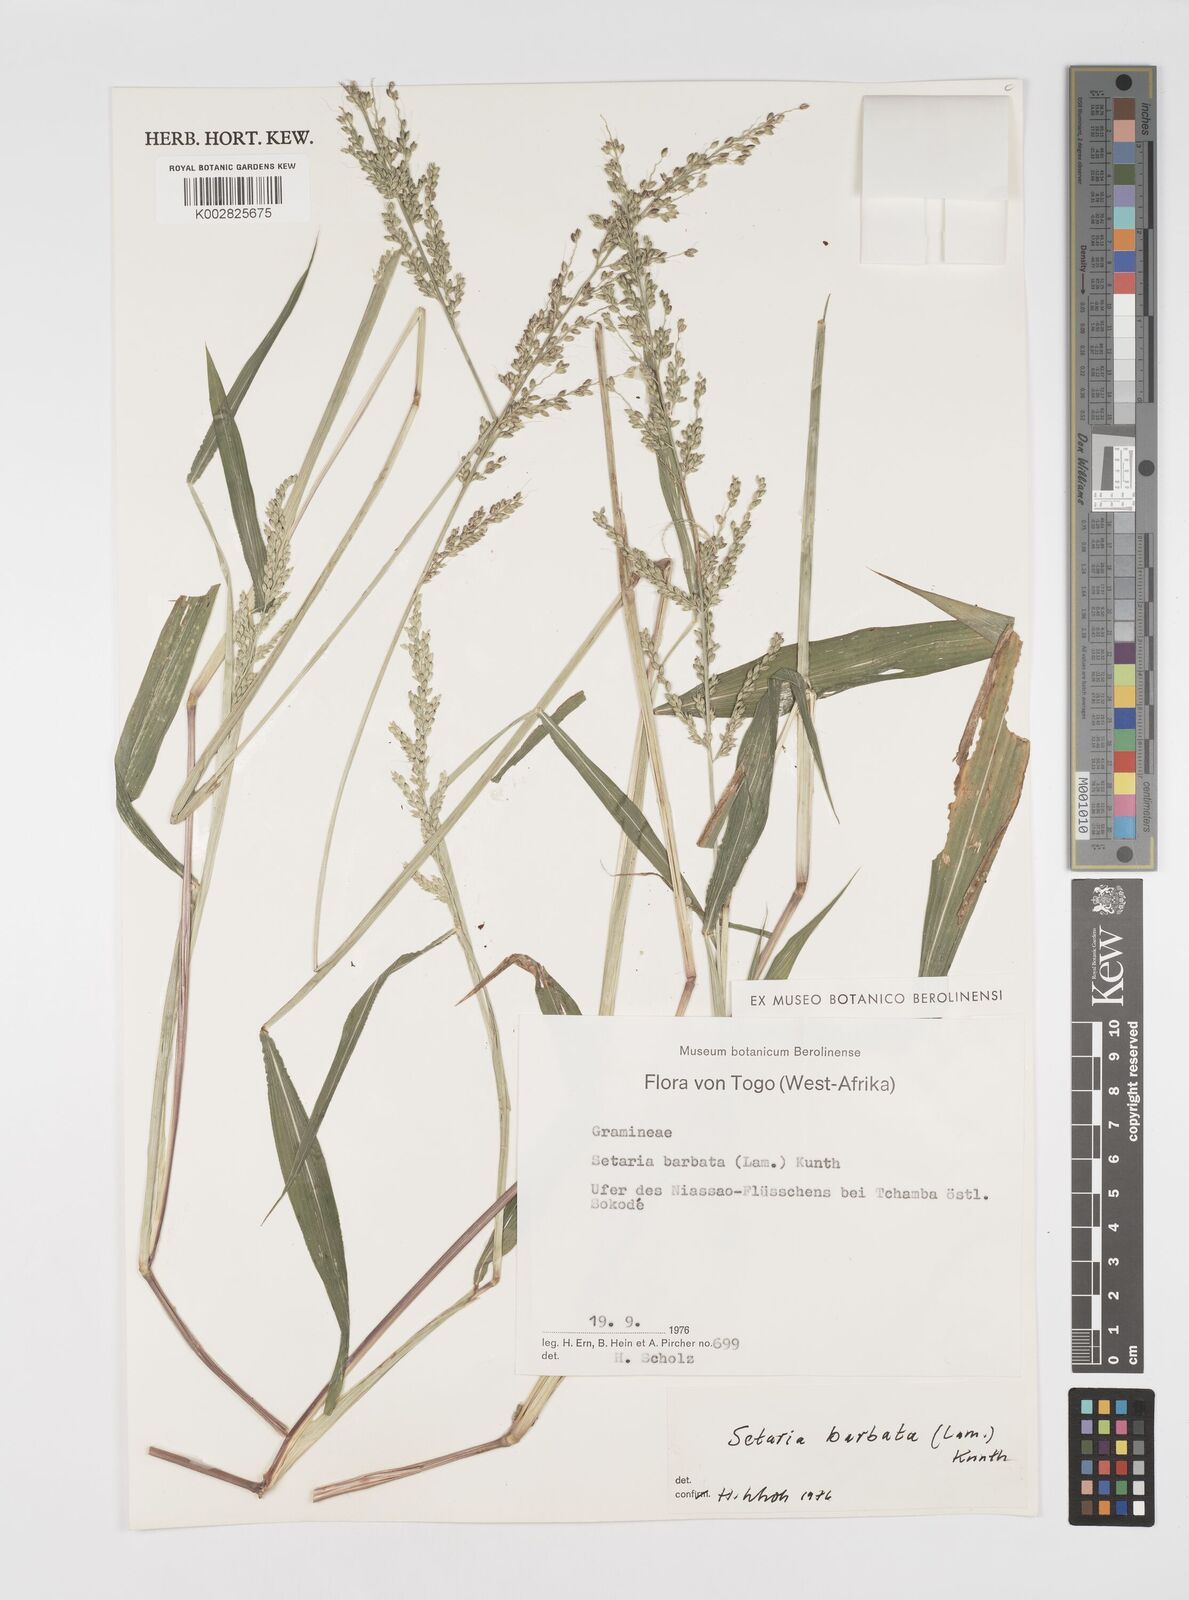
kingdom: Plantae
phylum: Tracheophyta
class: Liliopsida
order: Poales
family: Poaceae
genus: Setaria
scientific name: Setaria barbata
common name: East indian bristlegrass
